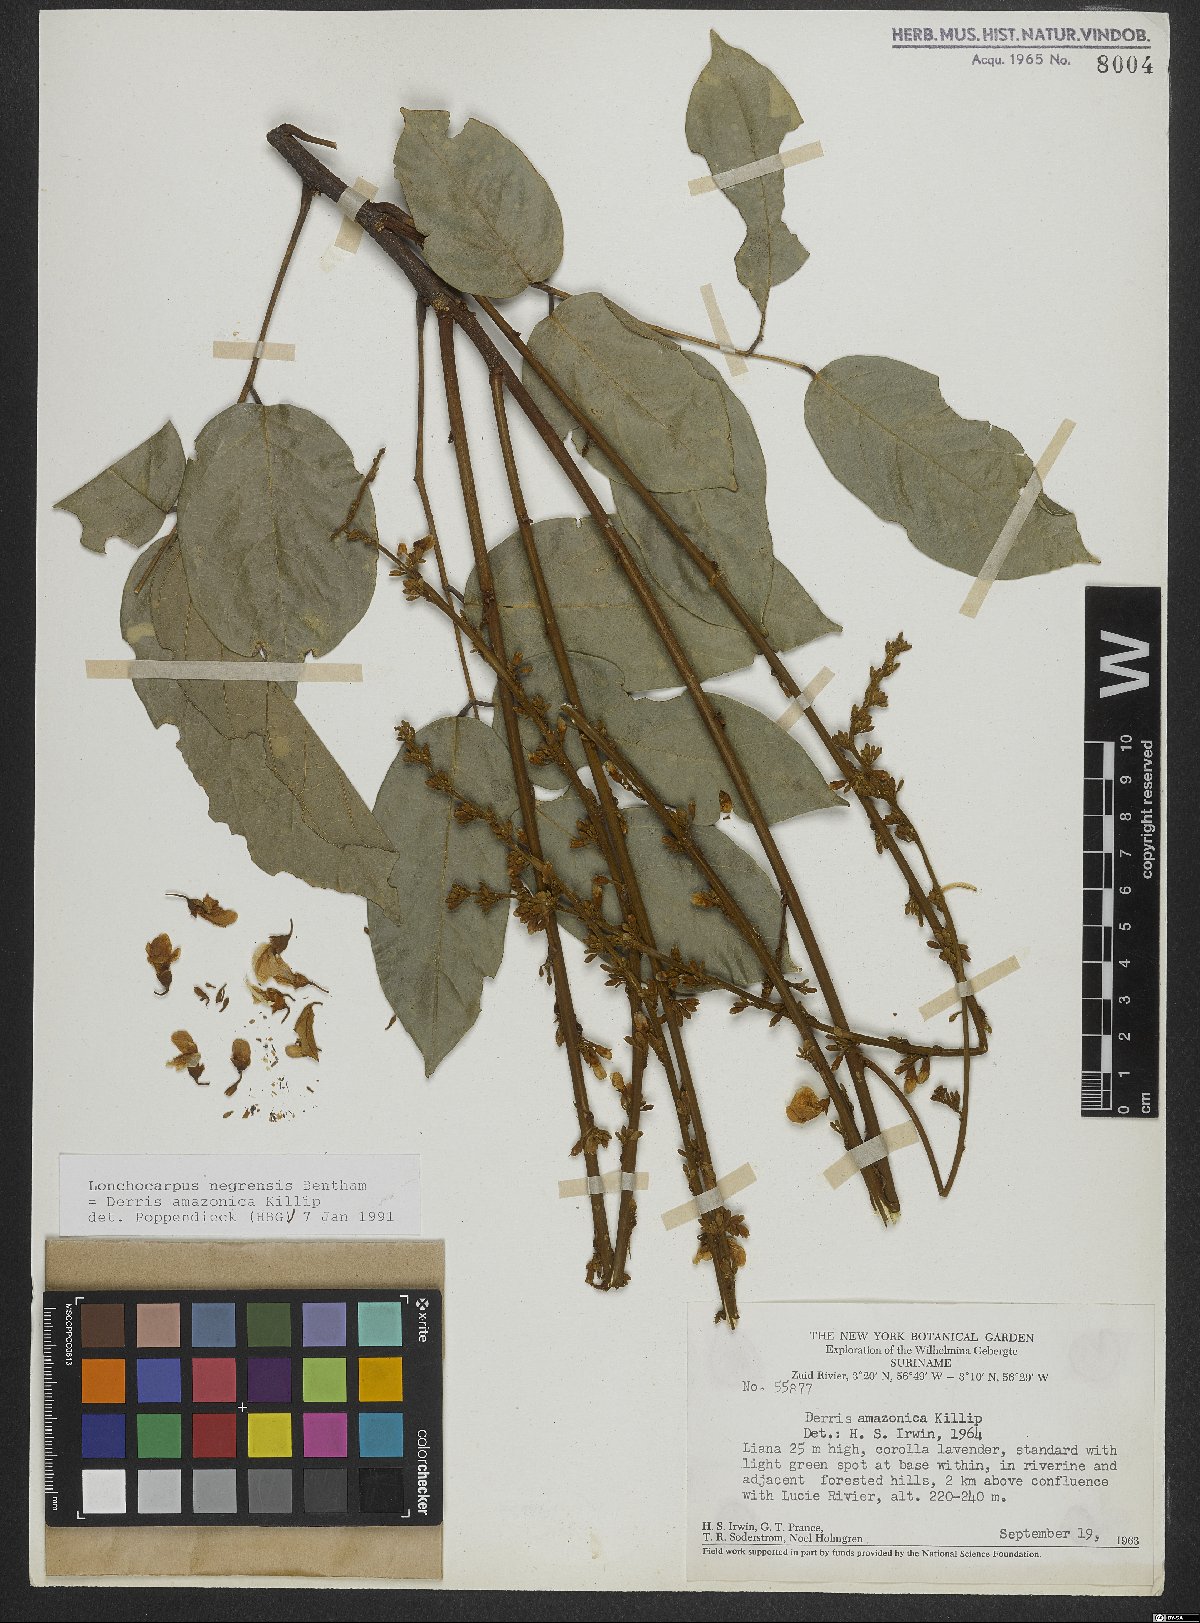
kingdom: Plantae
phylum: Tracheophyta
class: Magnoliopsida
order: Fabales
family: Fabaceae
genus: Deguelia
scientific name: Deguelia amazonica
